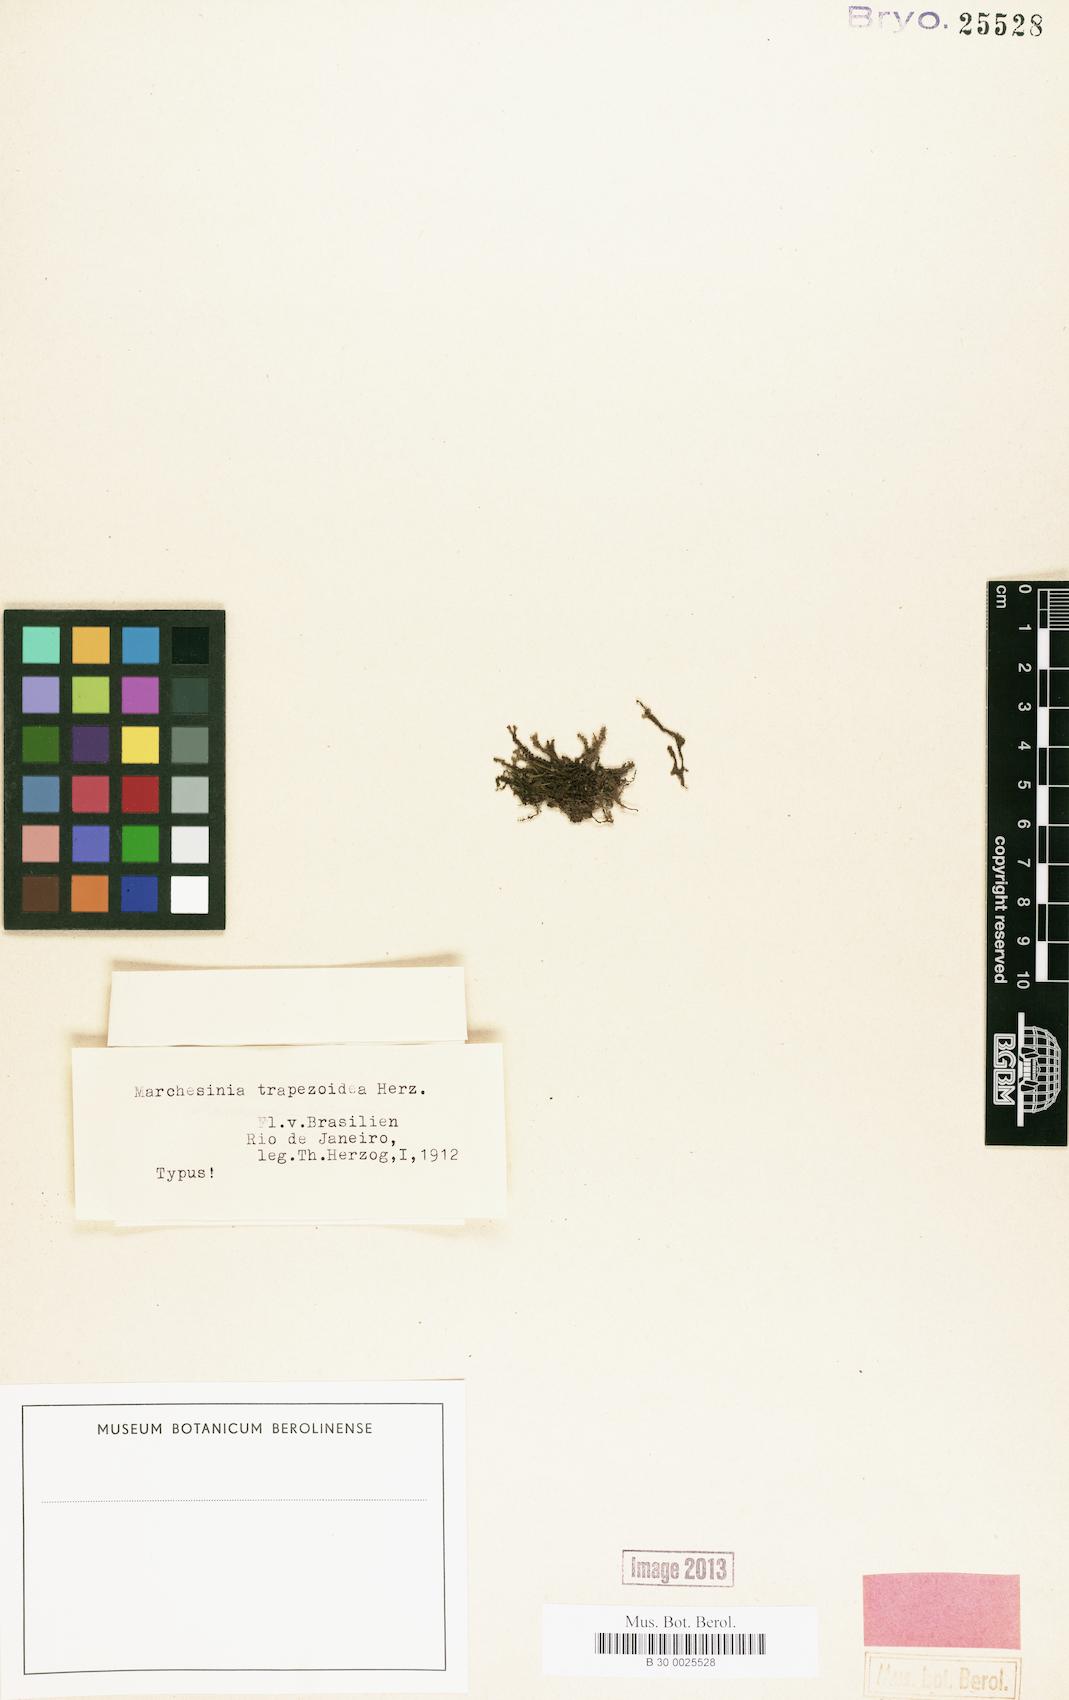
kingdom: Plantae
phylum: Marchantiophyta
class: Jungermanniopsida
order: Porellales
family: Lejeuneaceae
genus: Marchesinia
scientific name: Marchesinia brachiata
